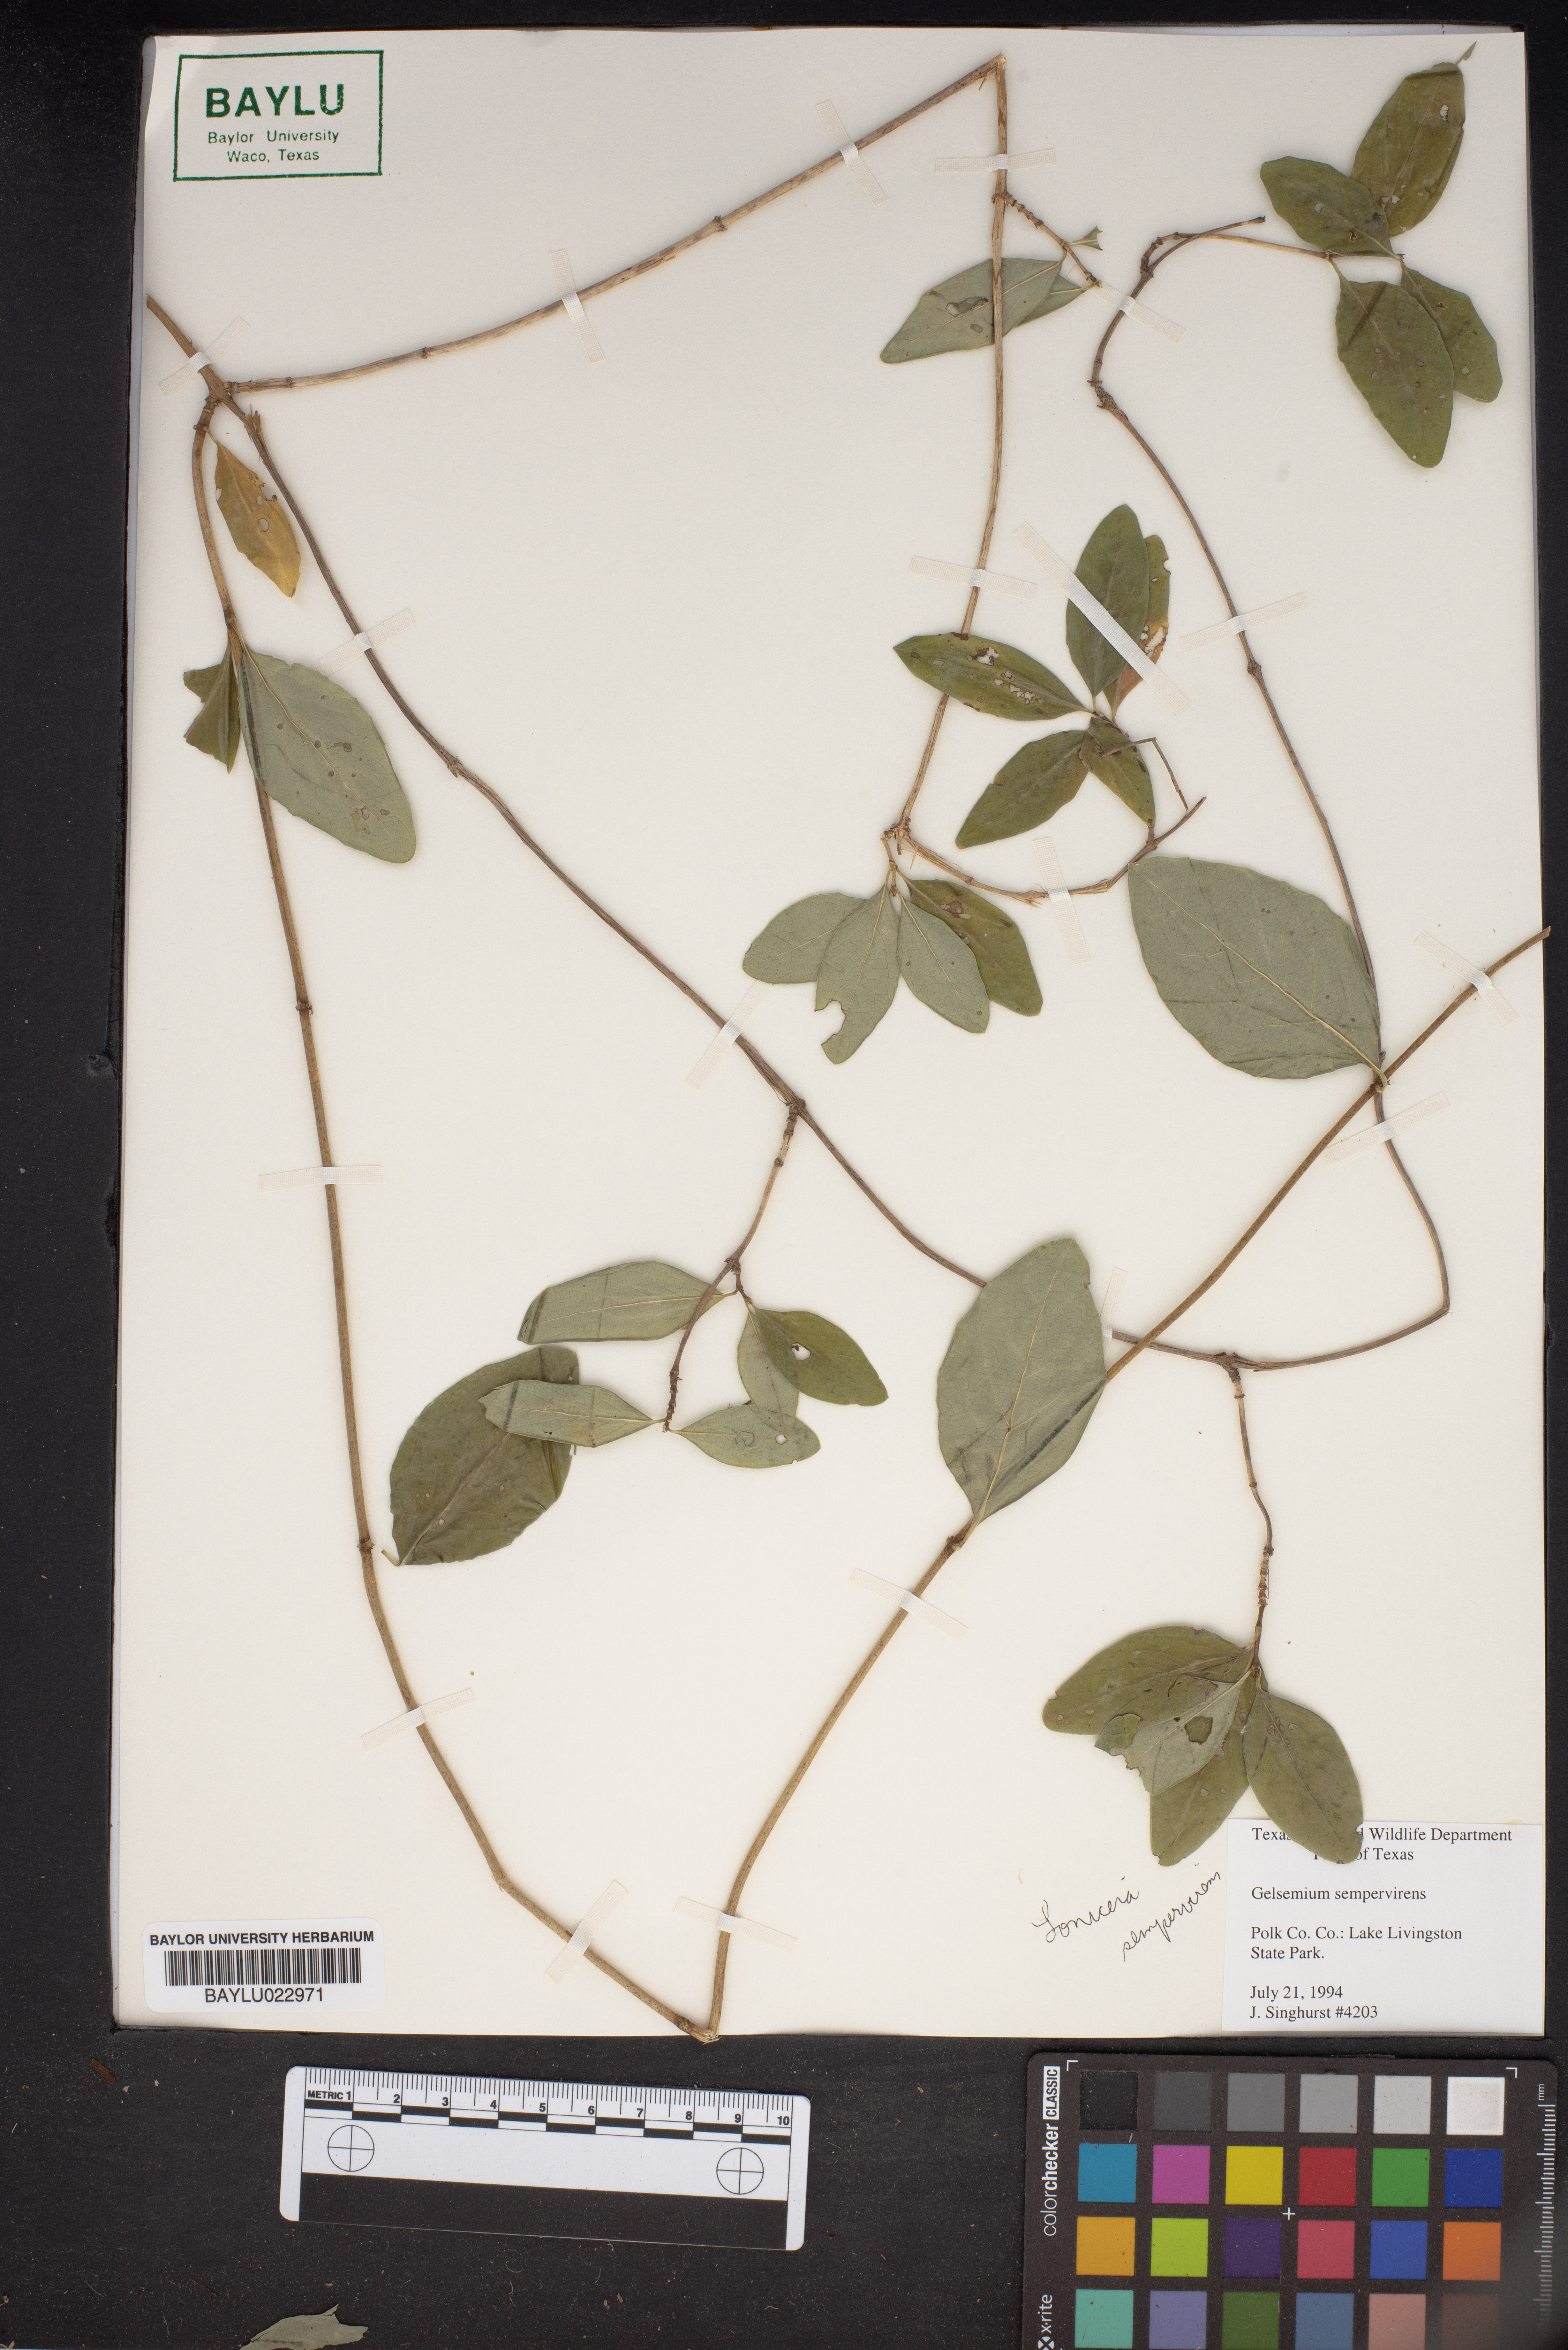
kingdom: Plantae
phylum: Tracheophyta
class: Magnoliopsida
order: Gentianales
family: Gelsemiaceae
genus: Gelsemium
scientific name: Gelsemium sempervirens
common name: Carolina-jasmine
